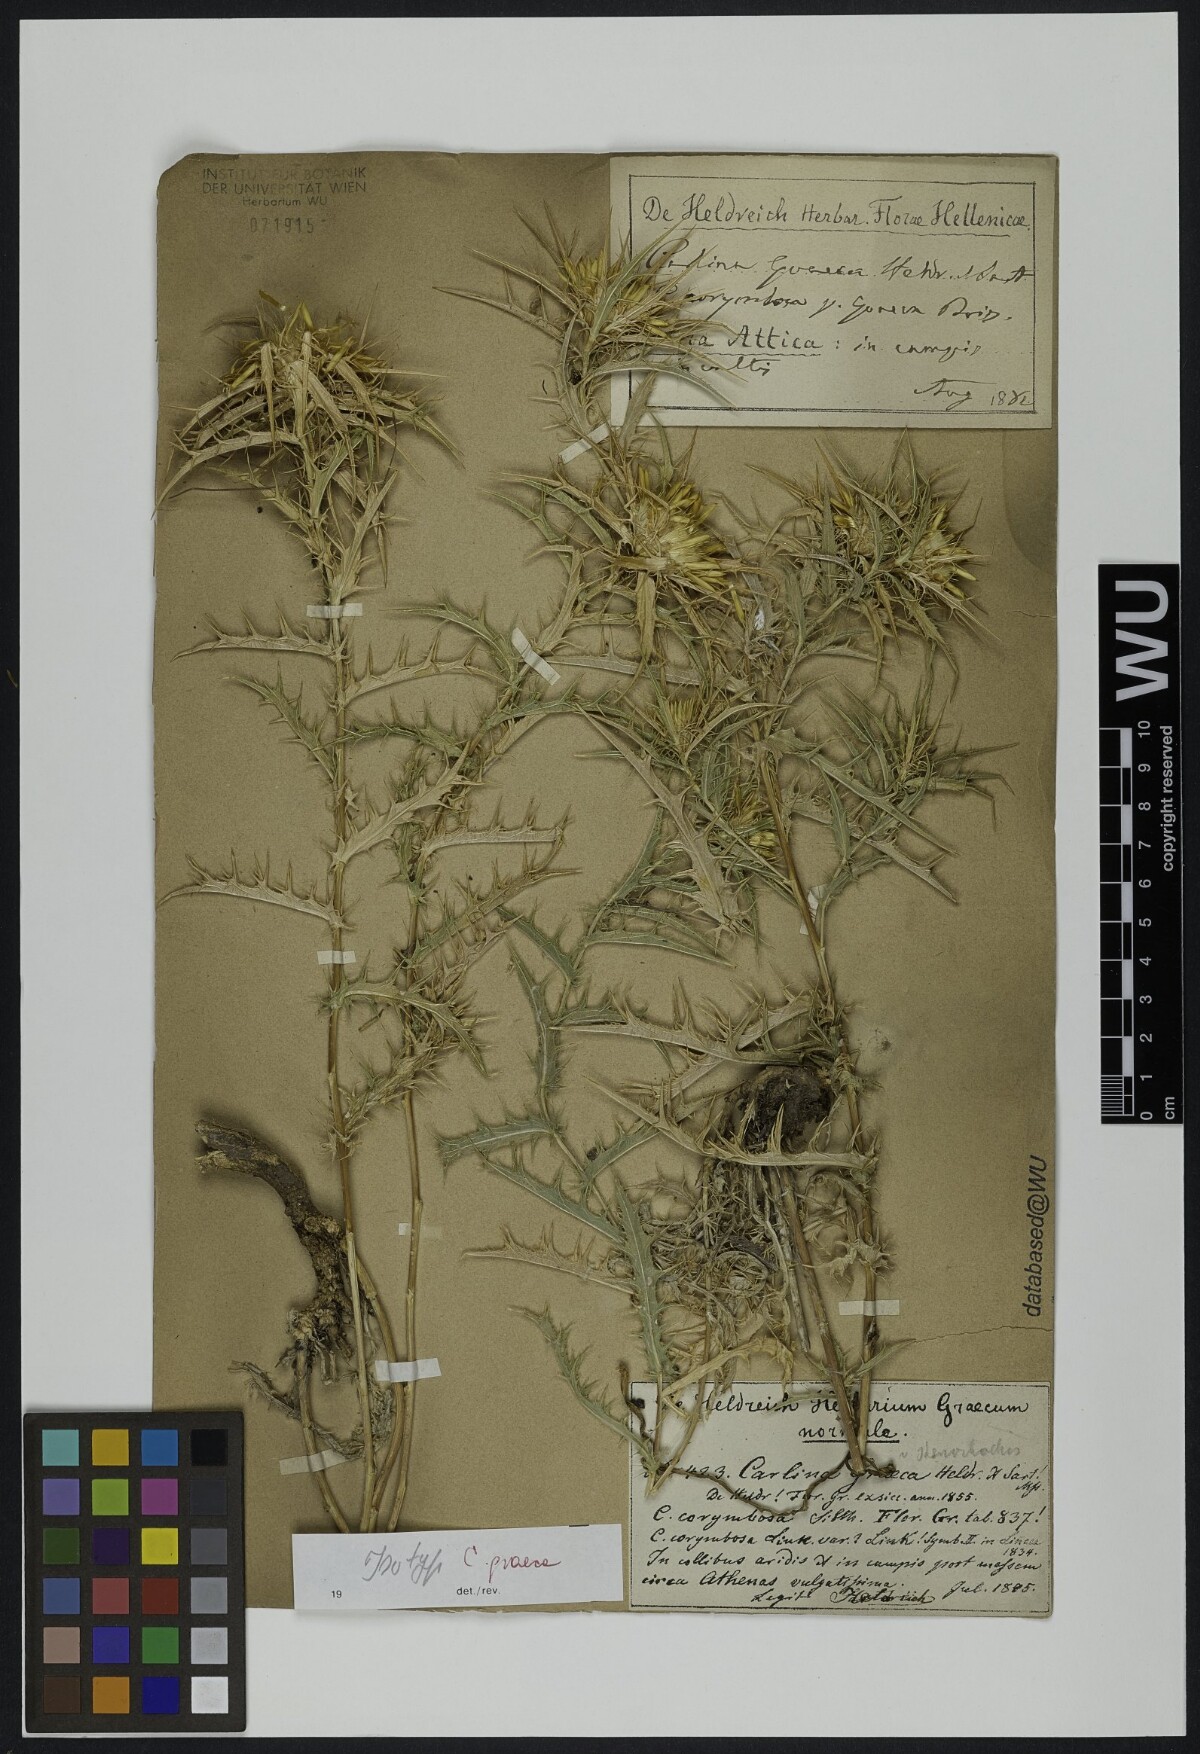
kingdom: Plantae
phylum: Tracheophyta
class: Magnoliopsida
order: Asterales
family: Asteraceae
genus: Carlina
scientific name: Carlina graeca
